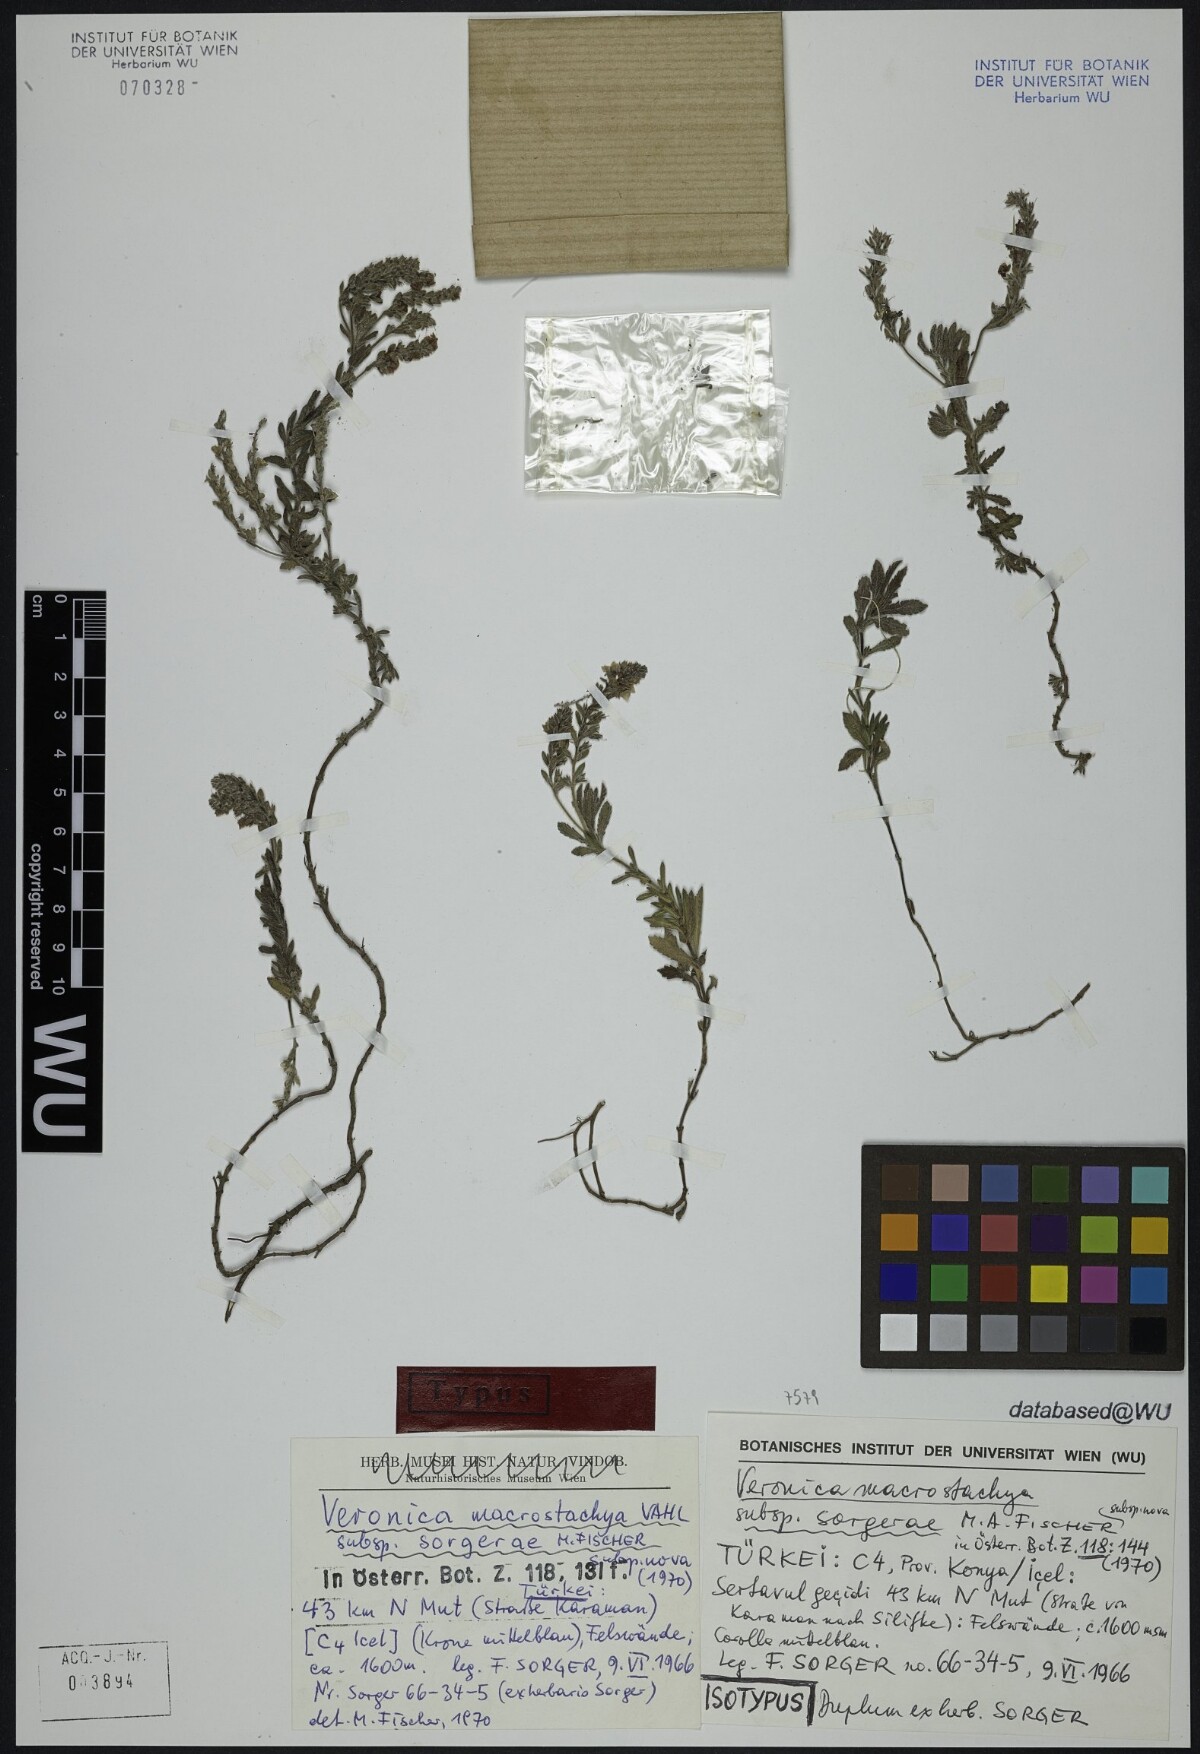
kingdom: Plantae
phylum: Tracheophyta
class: Magnoliopsida
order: Lamiales
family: Plantaginaceae
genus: Veronica
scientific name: Veronica macrostachya
